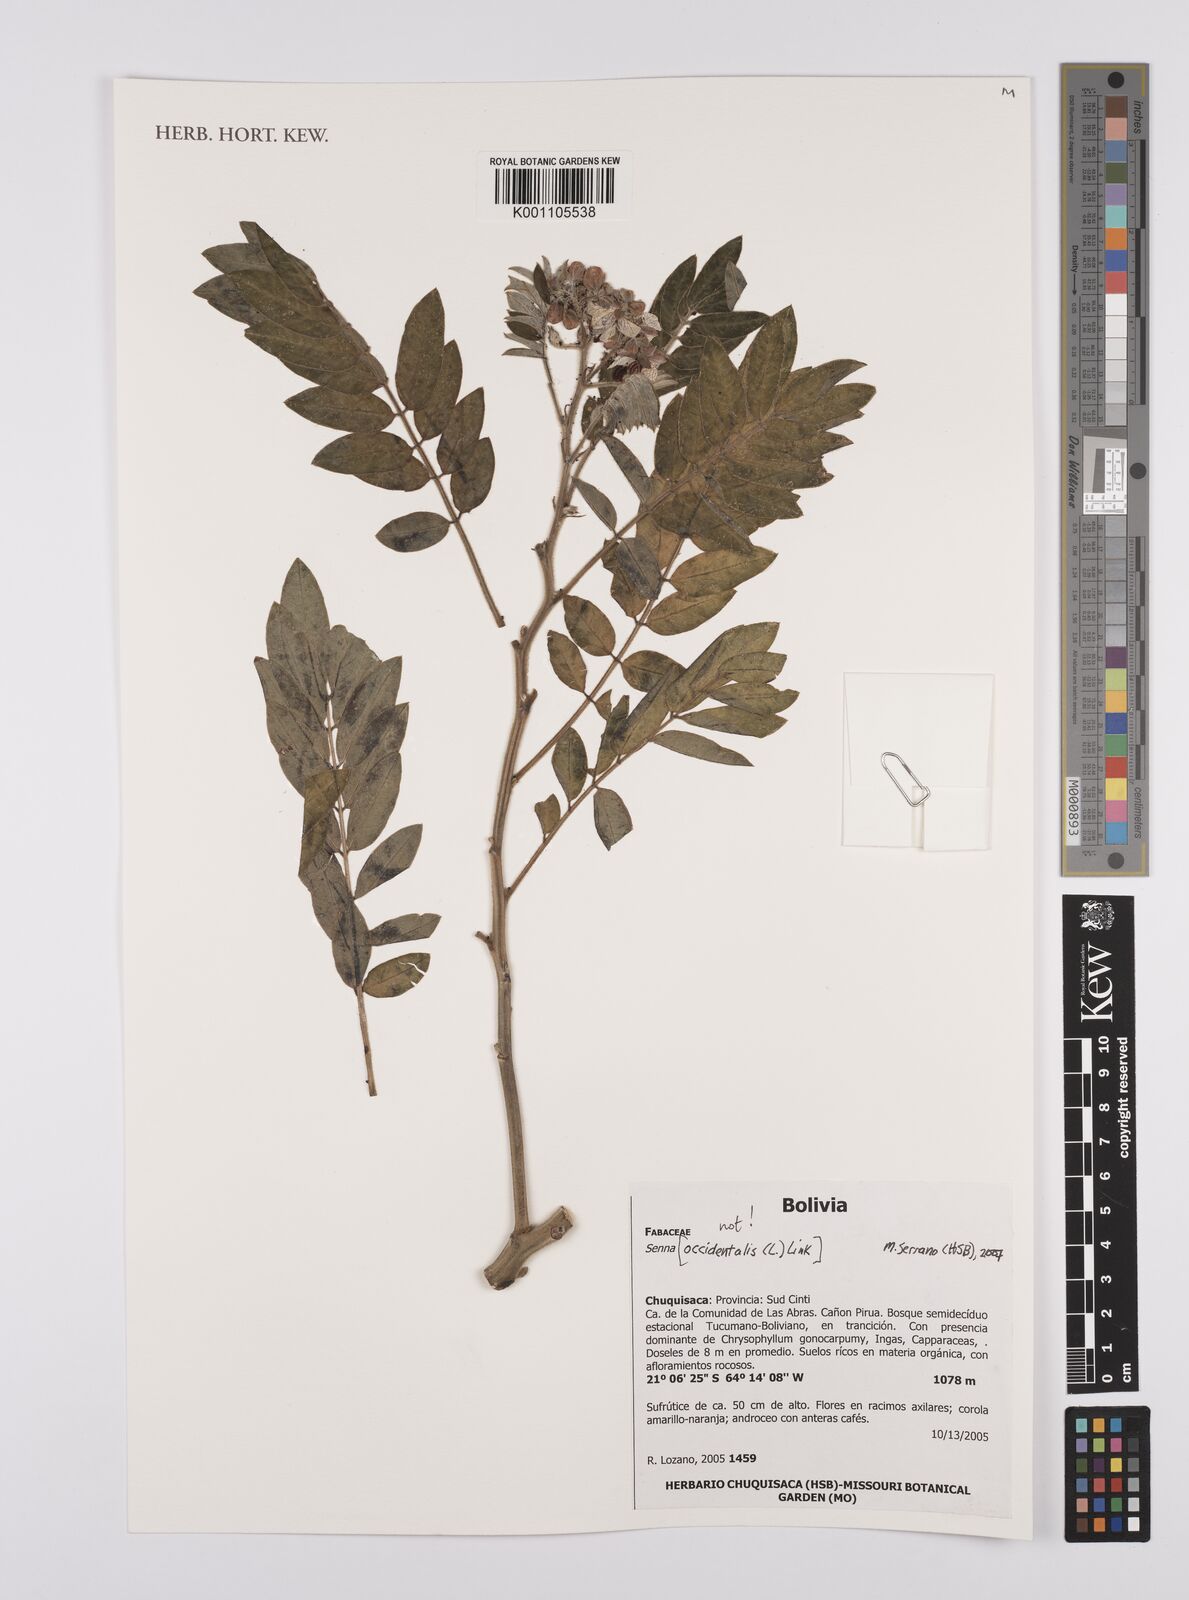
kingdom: Plantae
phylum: Tracheophyta
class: Magnoliopsida
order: Fabales
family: Fabaceae
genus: Senna
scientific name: Senna
